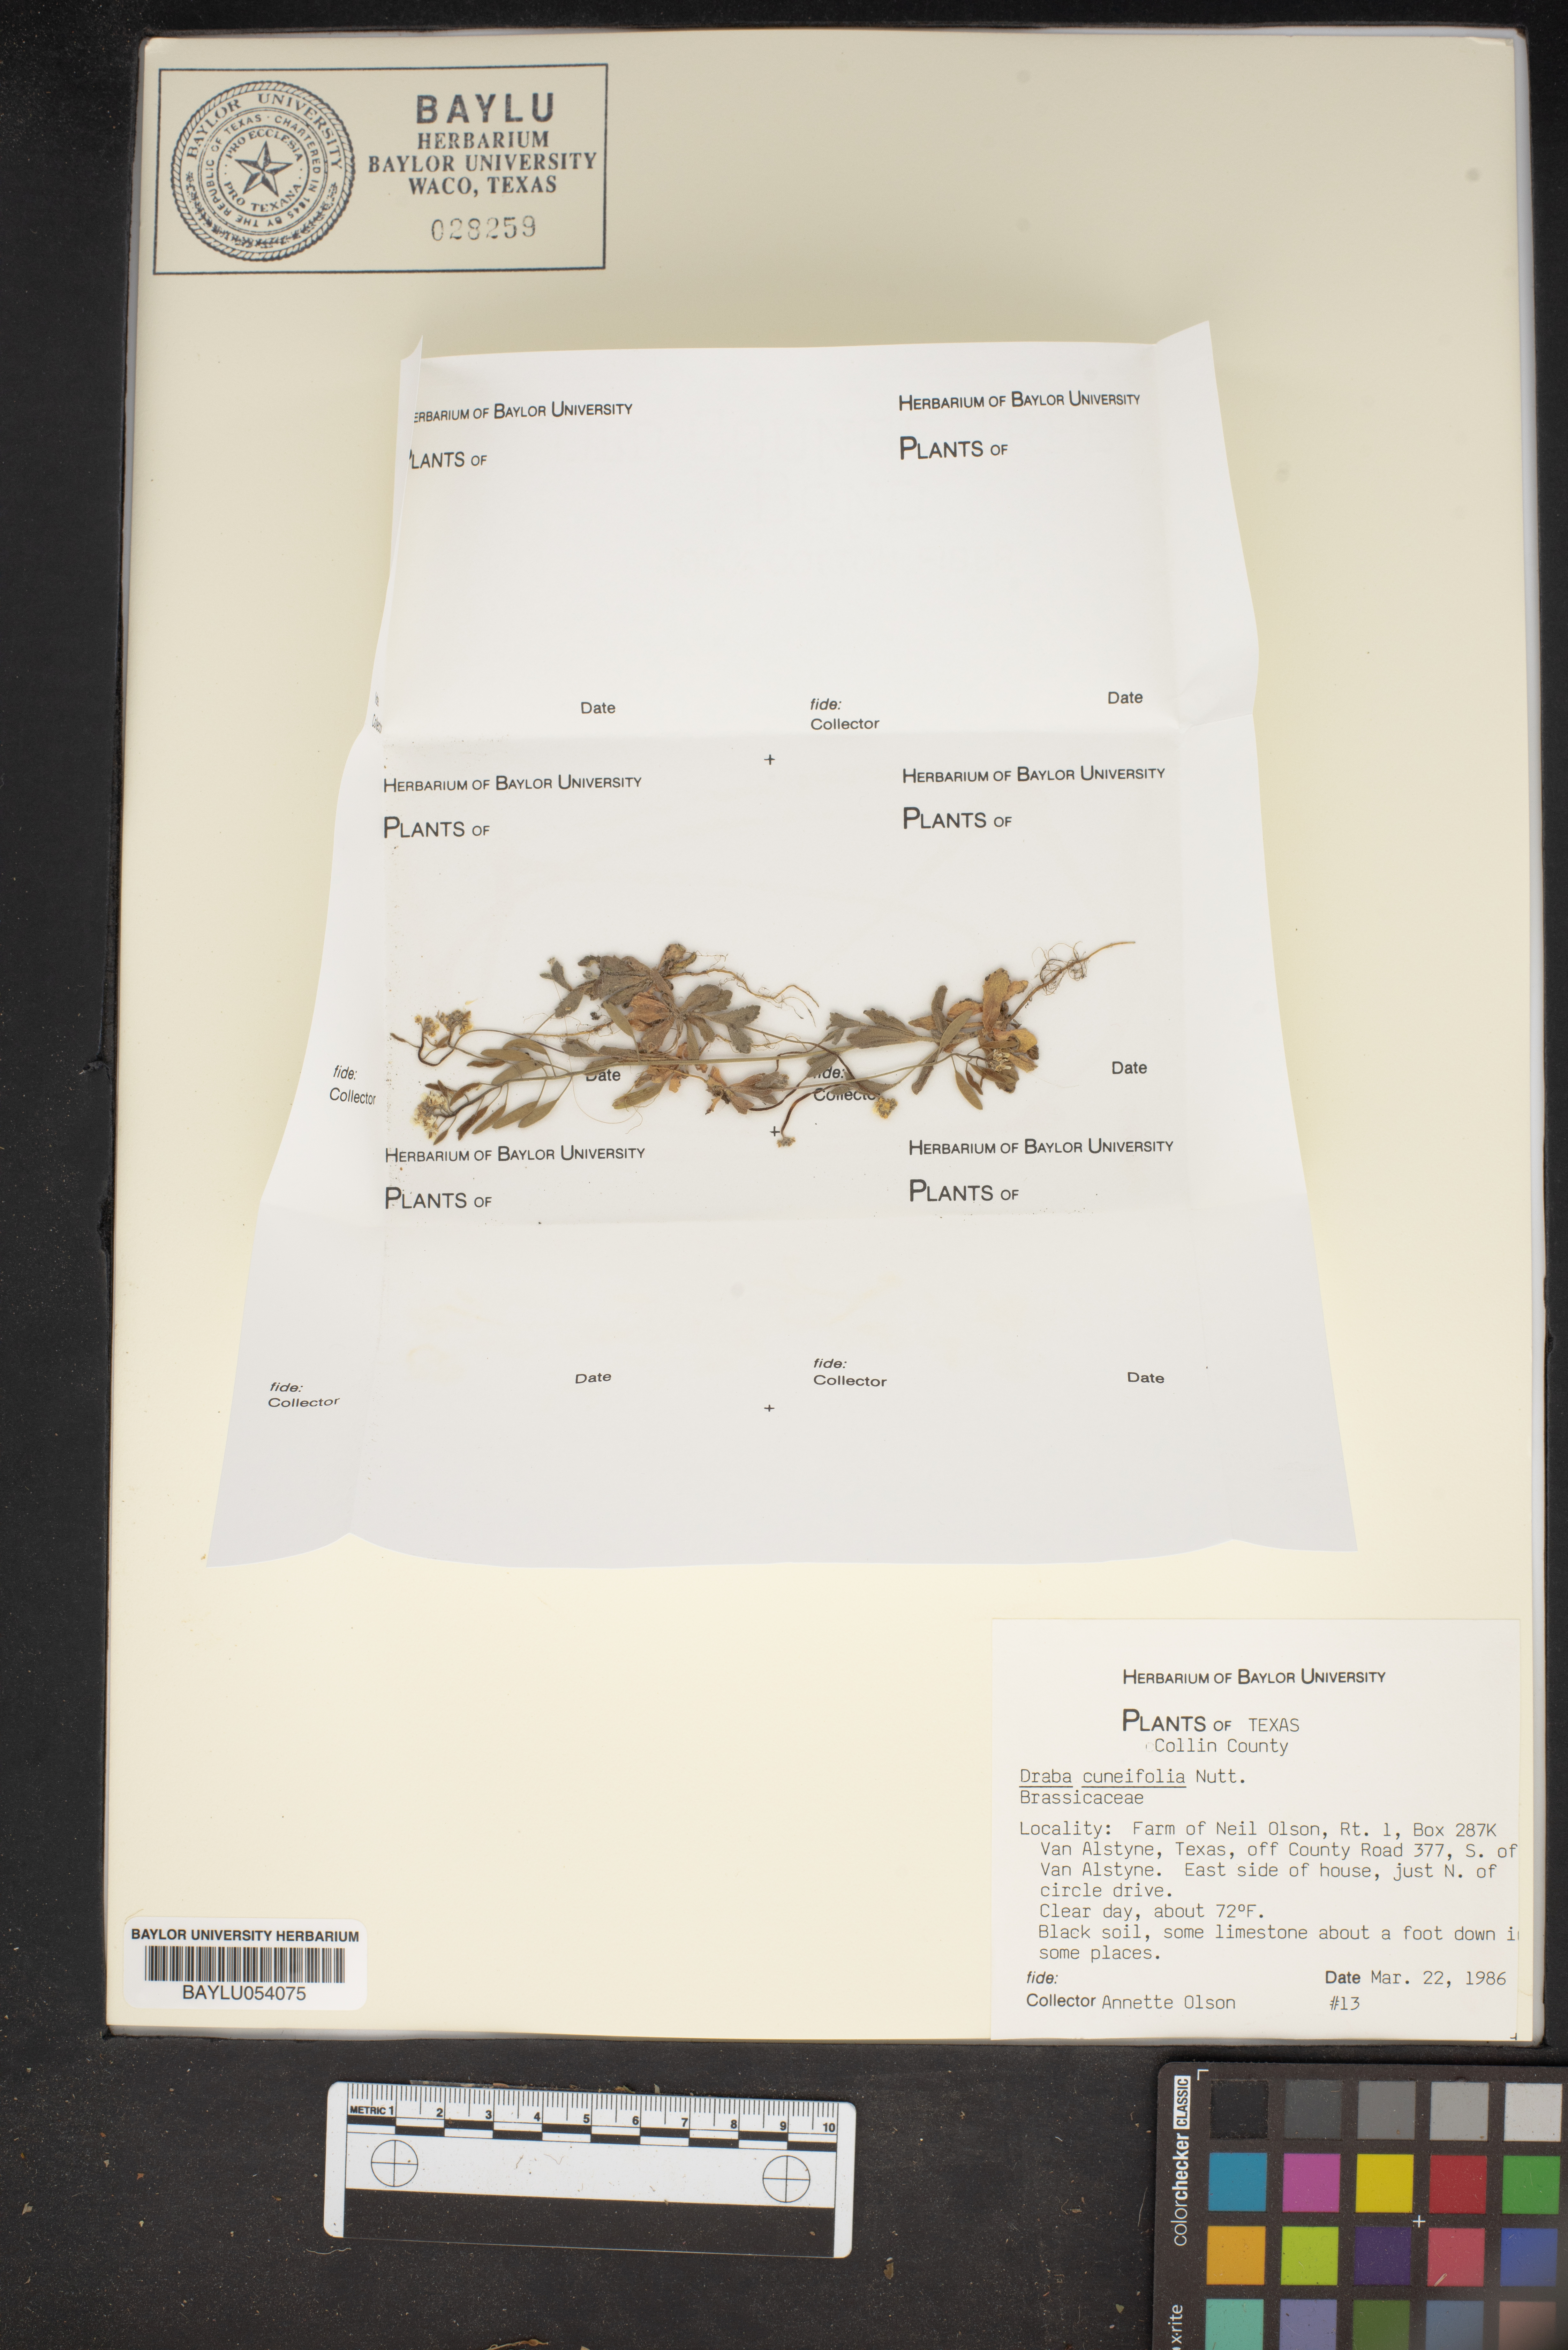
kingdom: Plantae
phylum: Tracheophyta
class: Magnoliopsida
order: Brassicales
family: Brassicaceae
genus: Tomostima
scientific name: Tomostima cuneifolia
